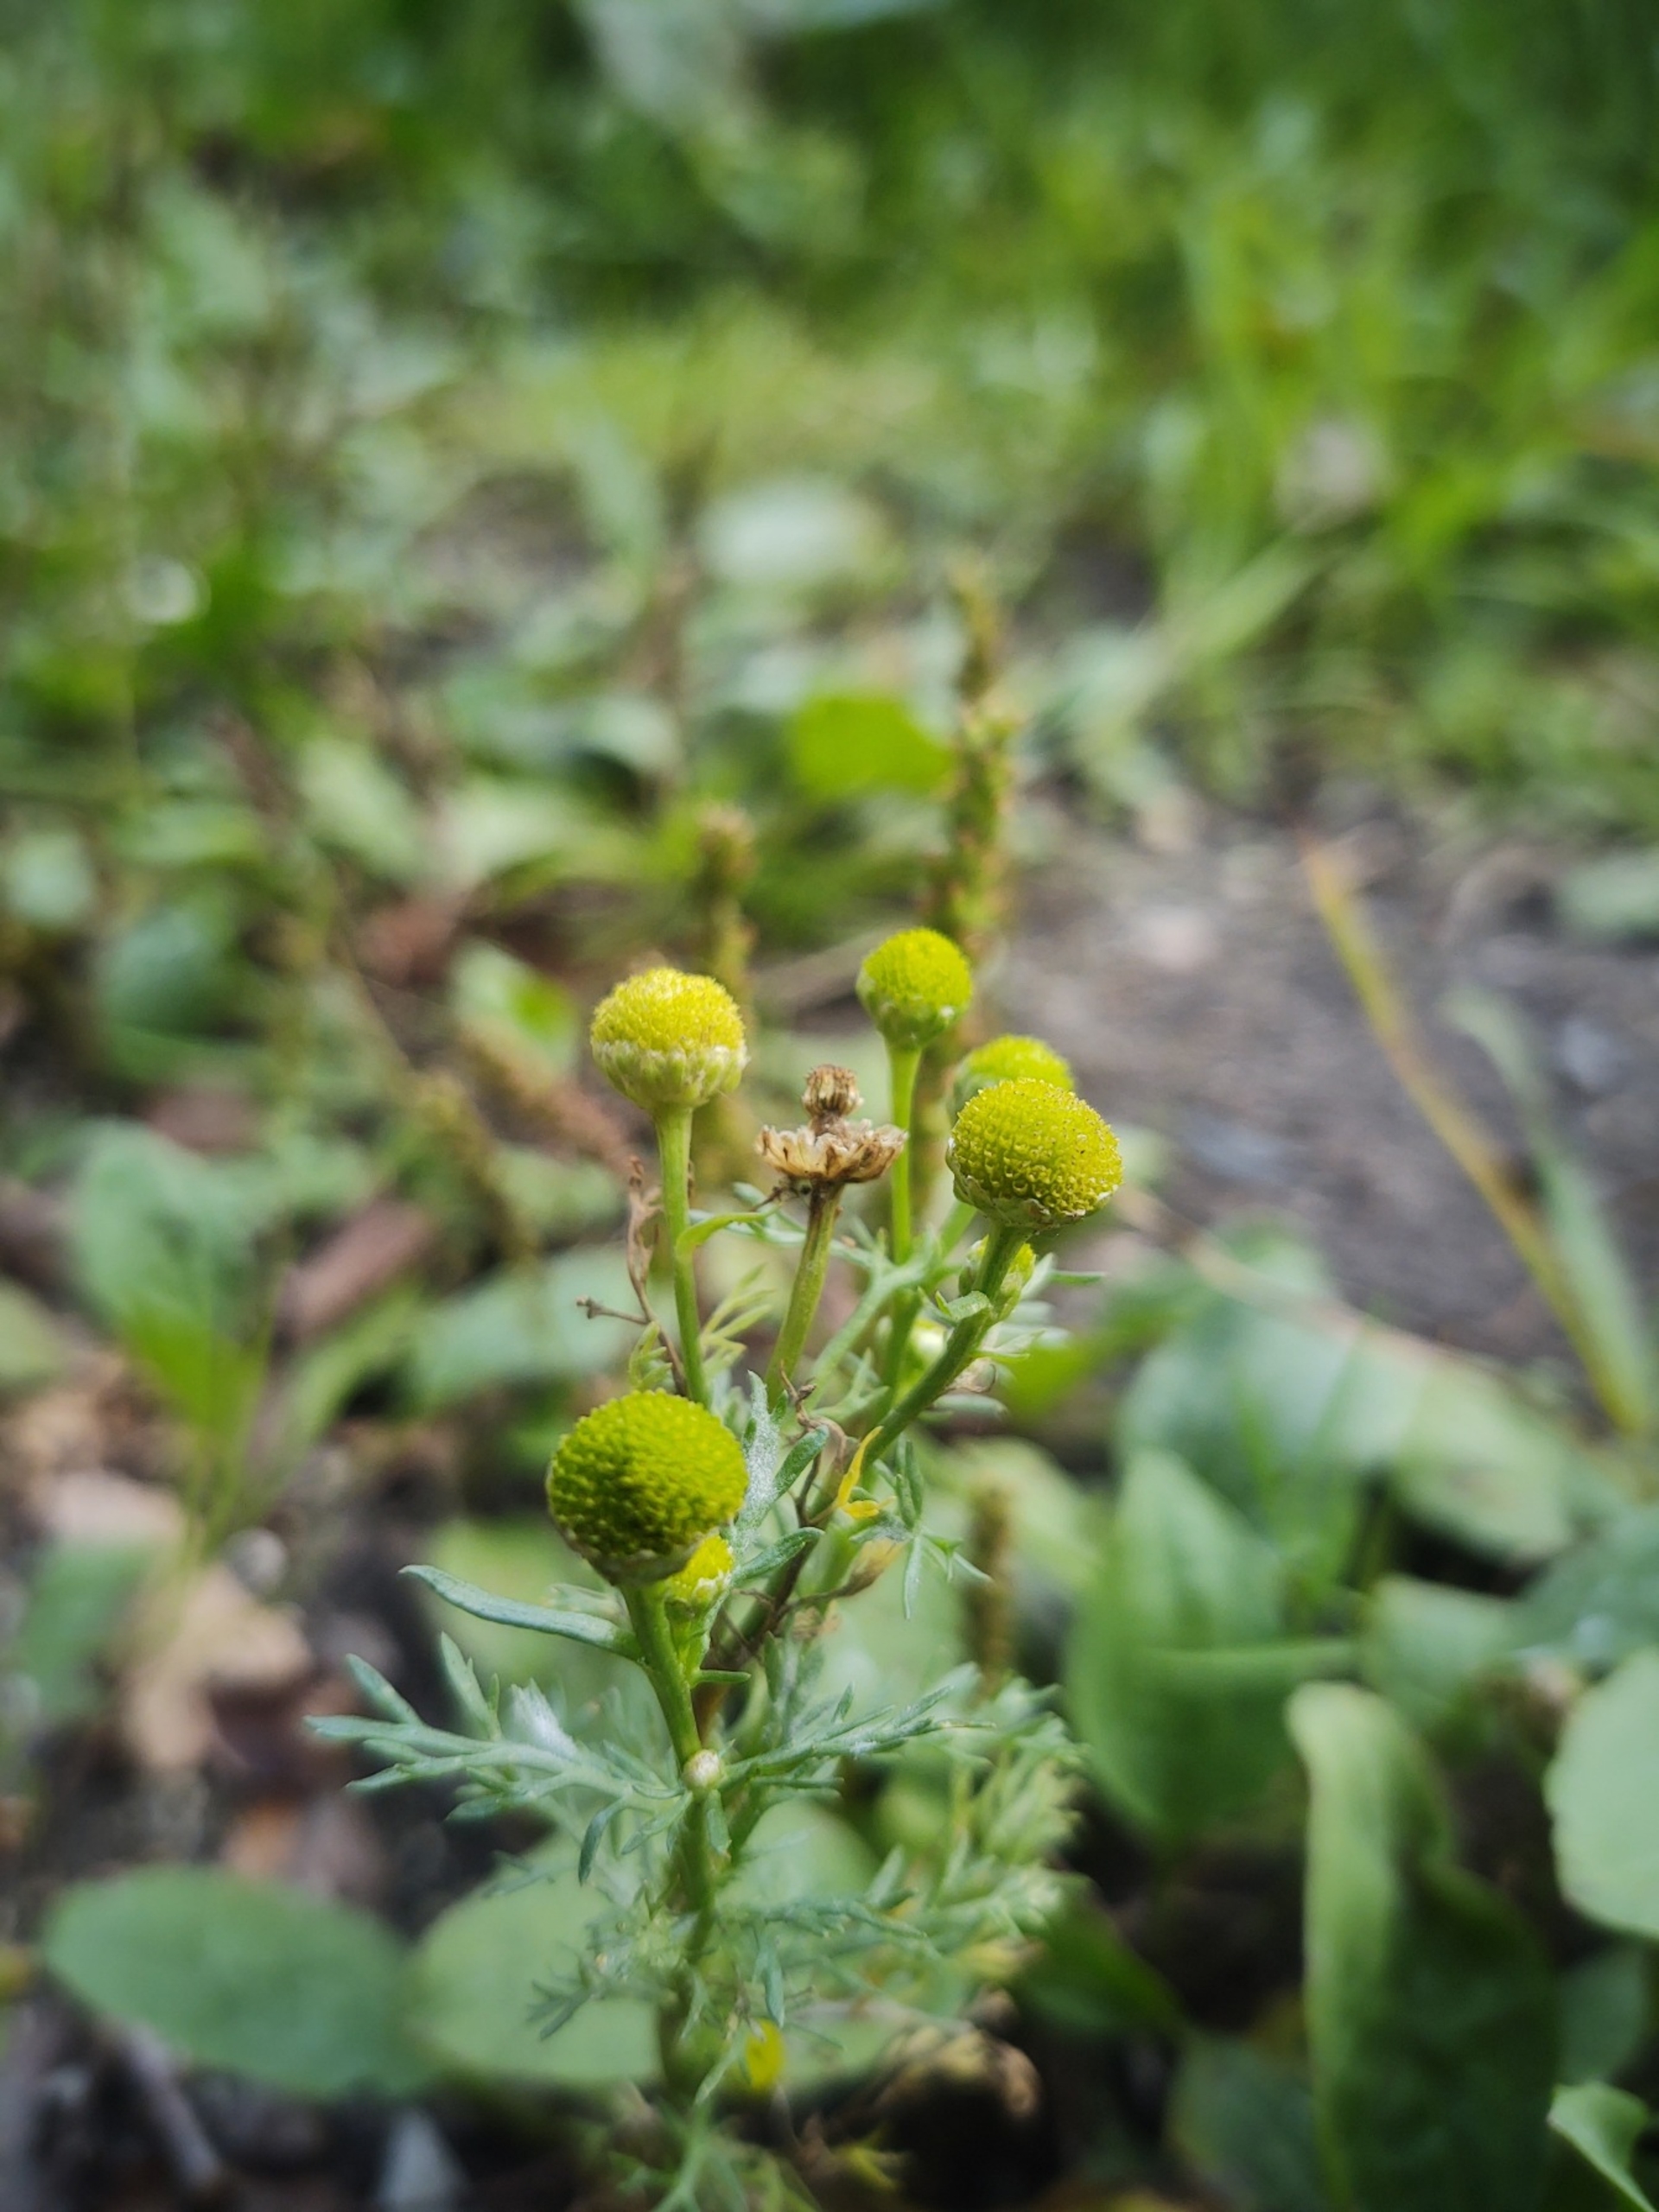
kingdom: Plantae
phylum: Tracheophyta
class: Magnoliopsida
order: Asterales
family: Asteraceae
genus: Matricaria
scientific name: Matricaria discoidea
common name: Skive-kamille
